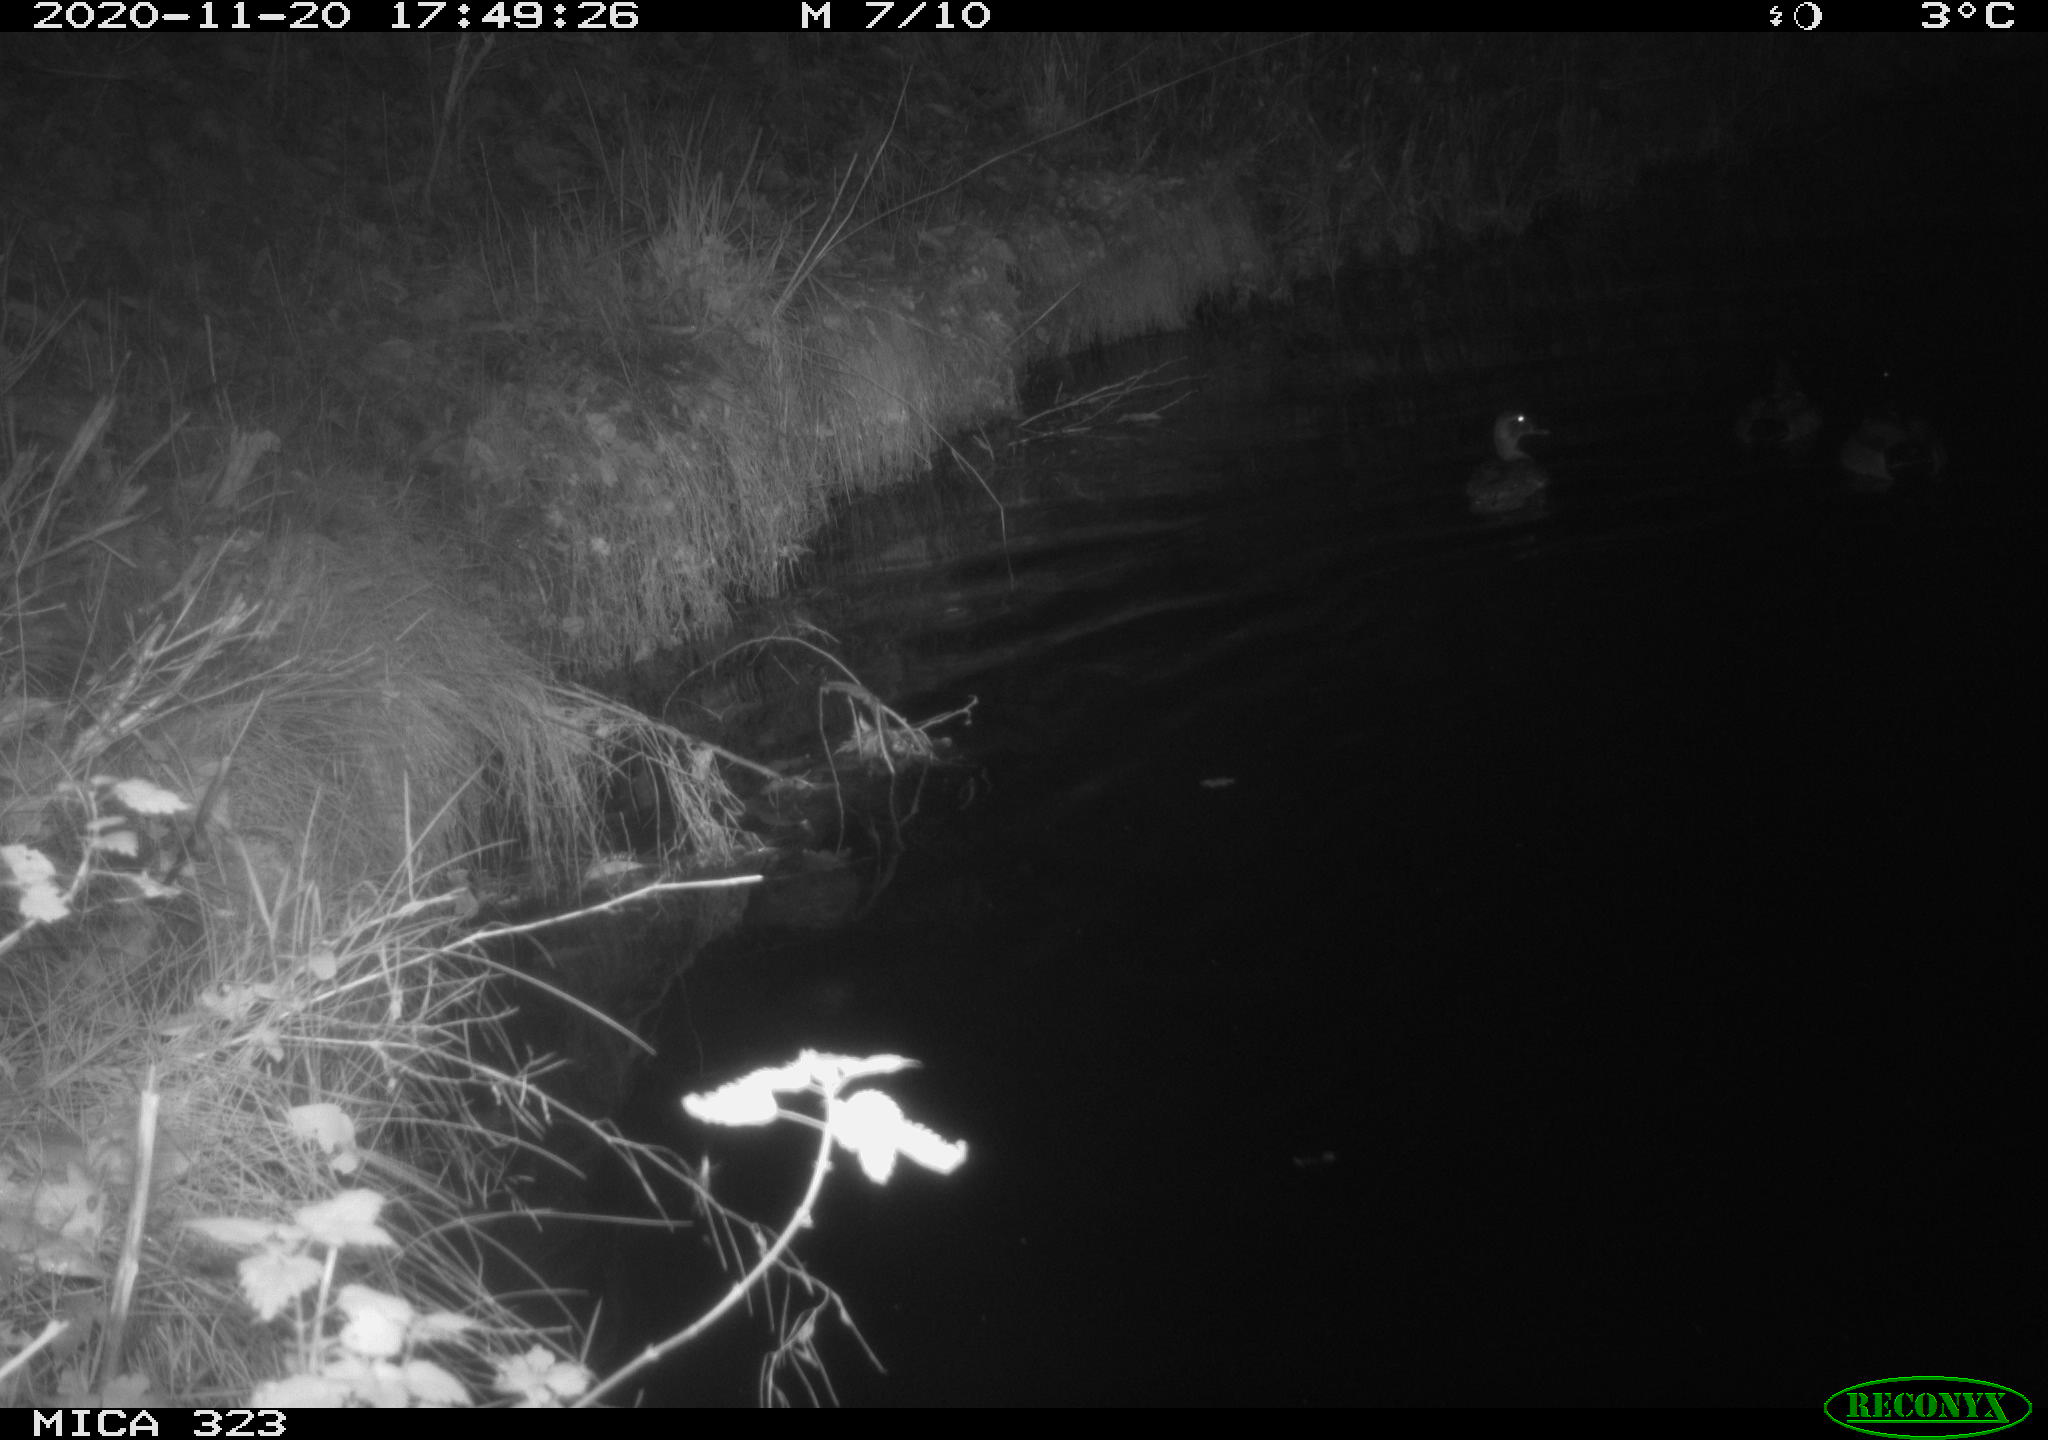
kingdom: Animalia
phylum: Chordata
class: Aves
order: Anseriformes
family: Anatidae
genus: Anas
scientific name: Anas
